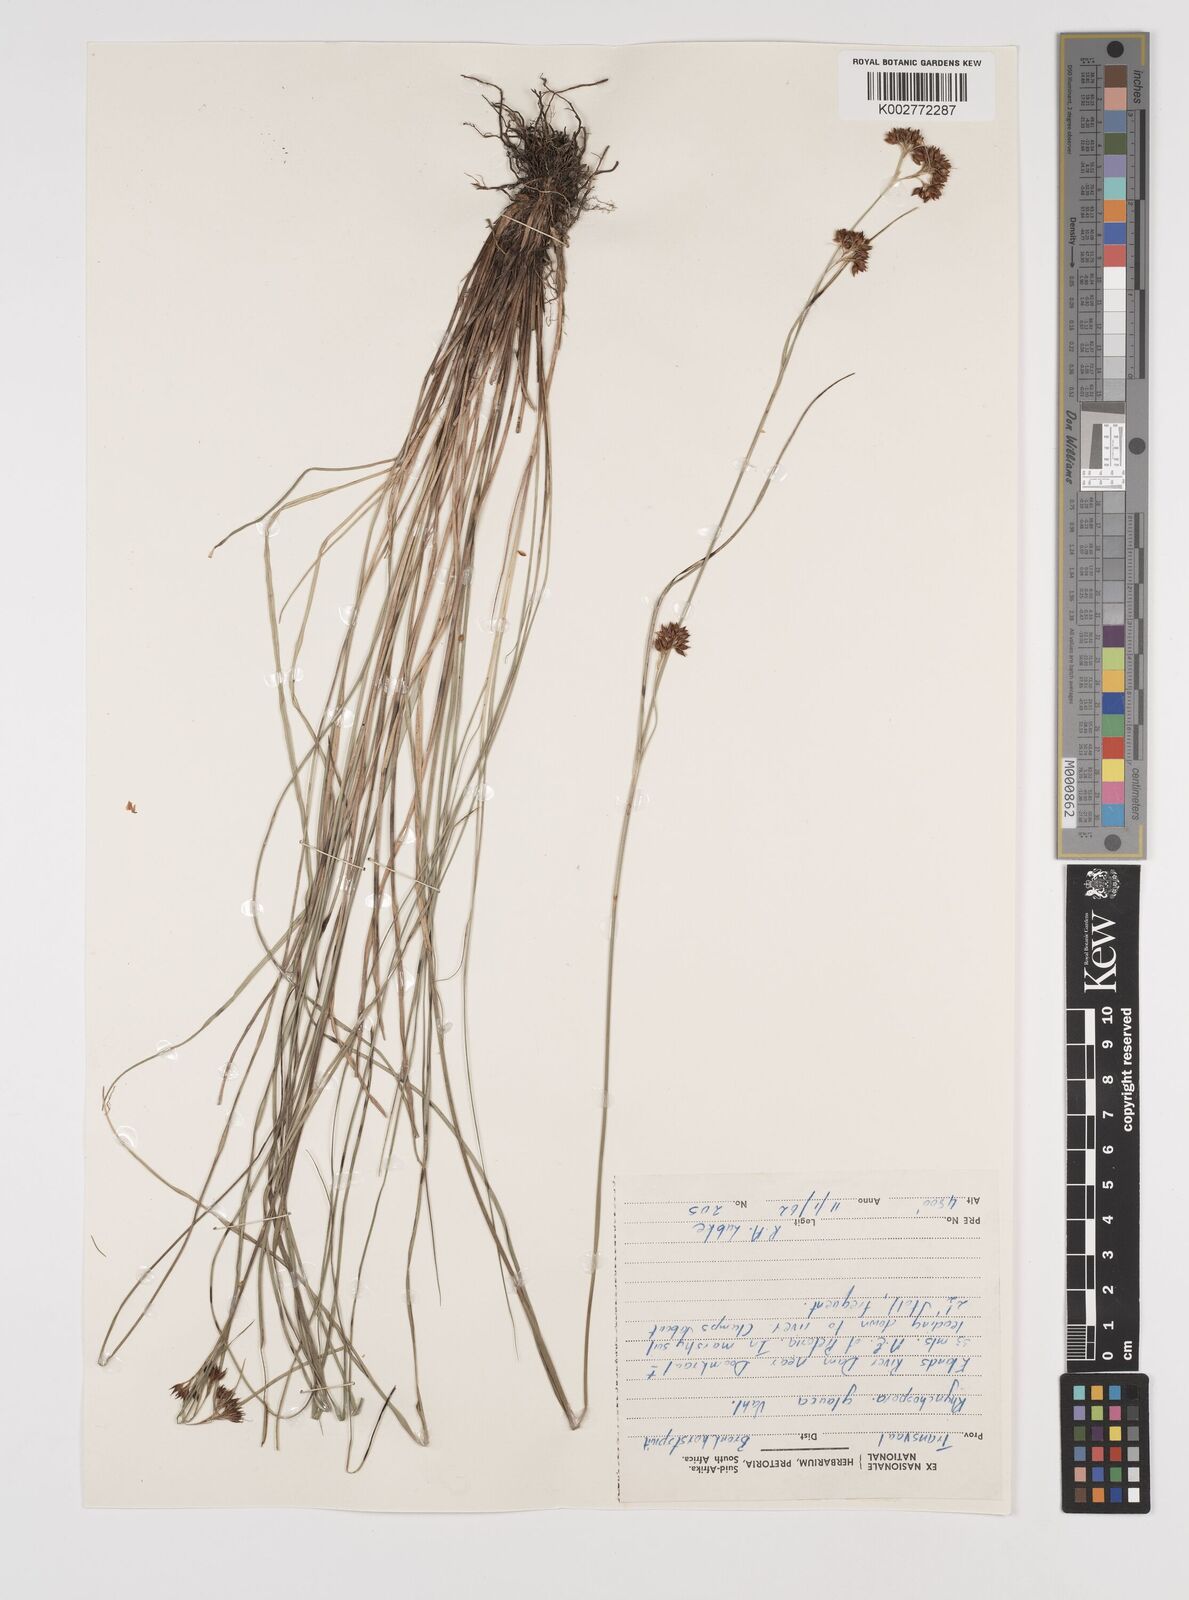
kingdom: Plantae
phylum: Tracheophyta
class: Liliopsida
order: Poales
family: Cyperaceae
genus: Rhynchospora
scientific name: Rhynchospora rugosa
